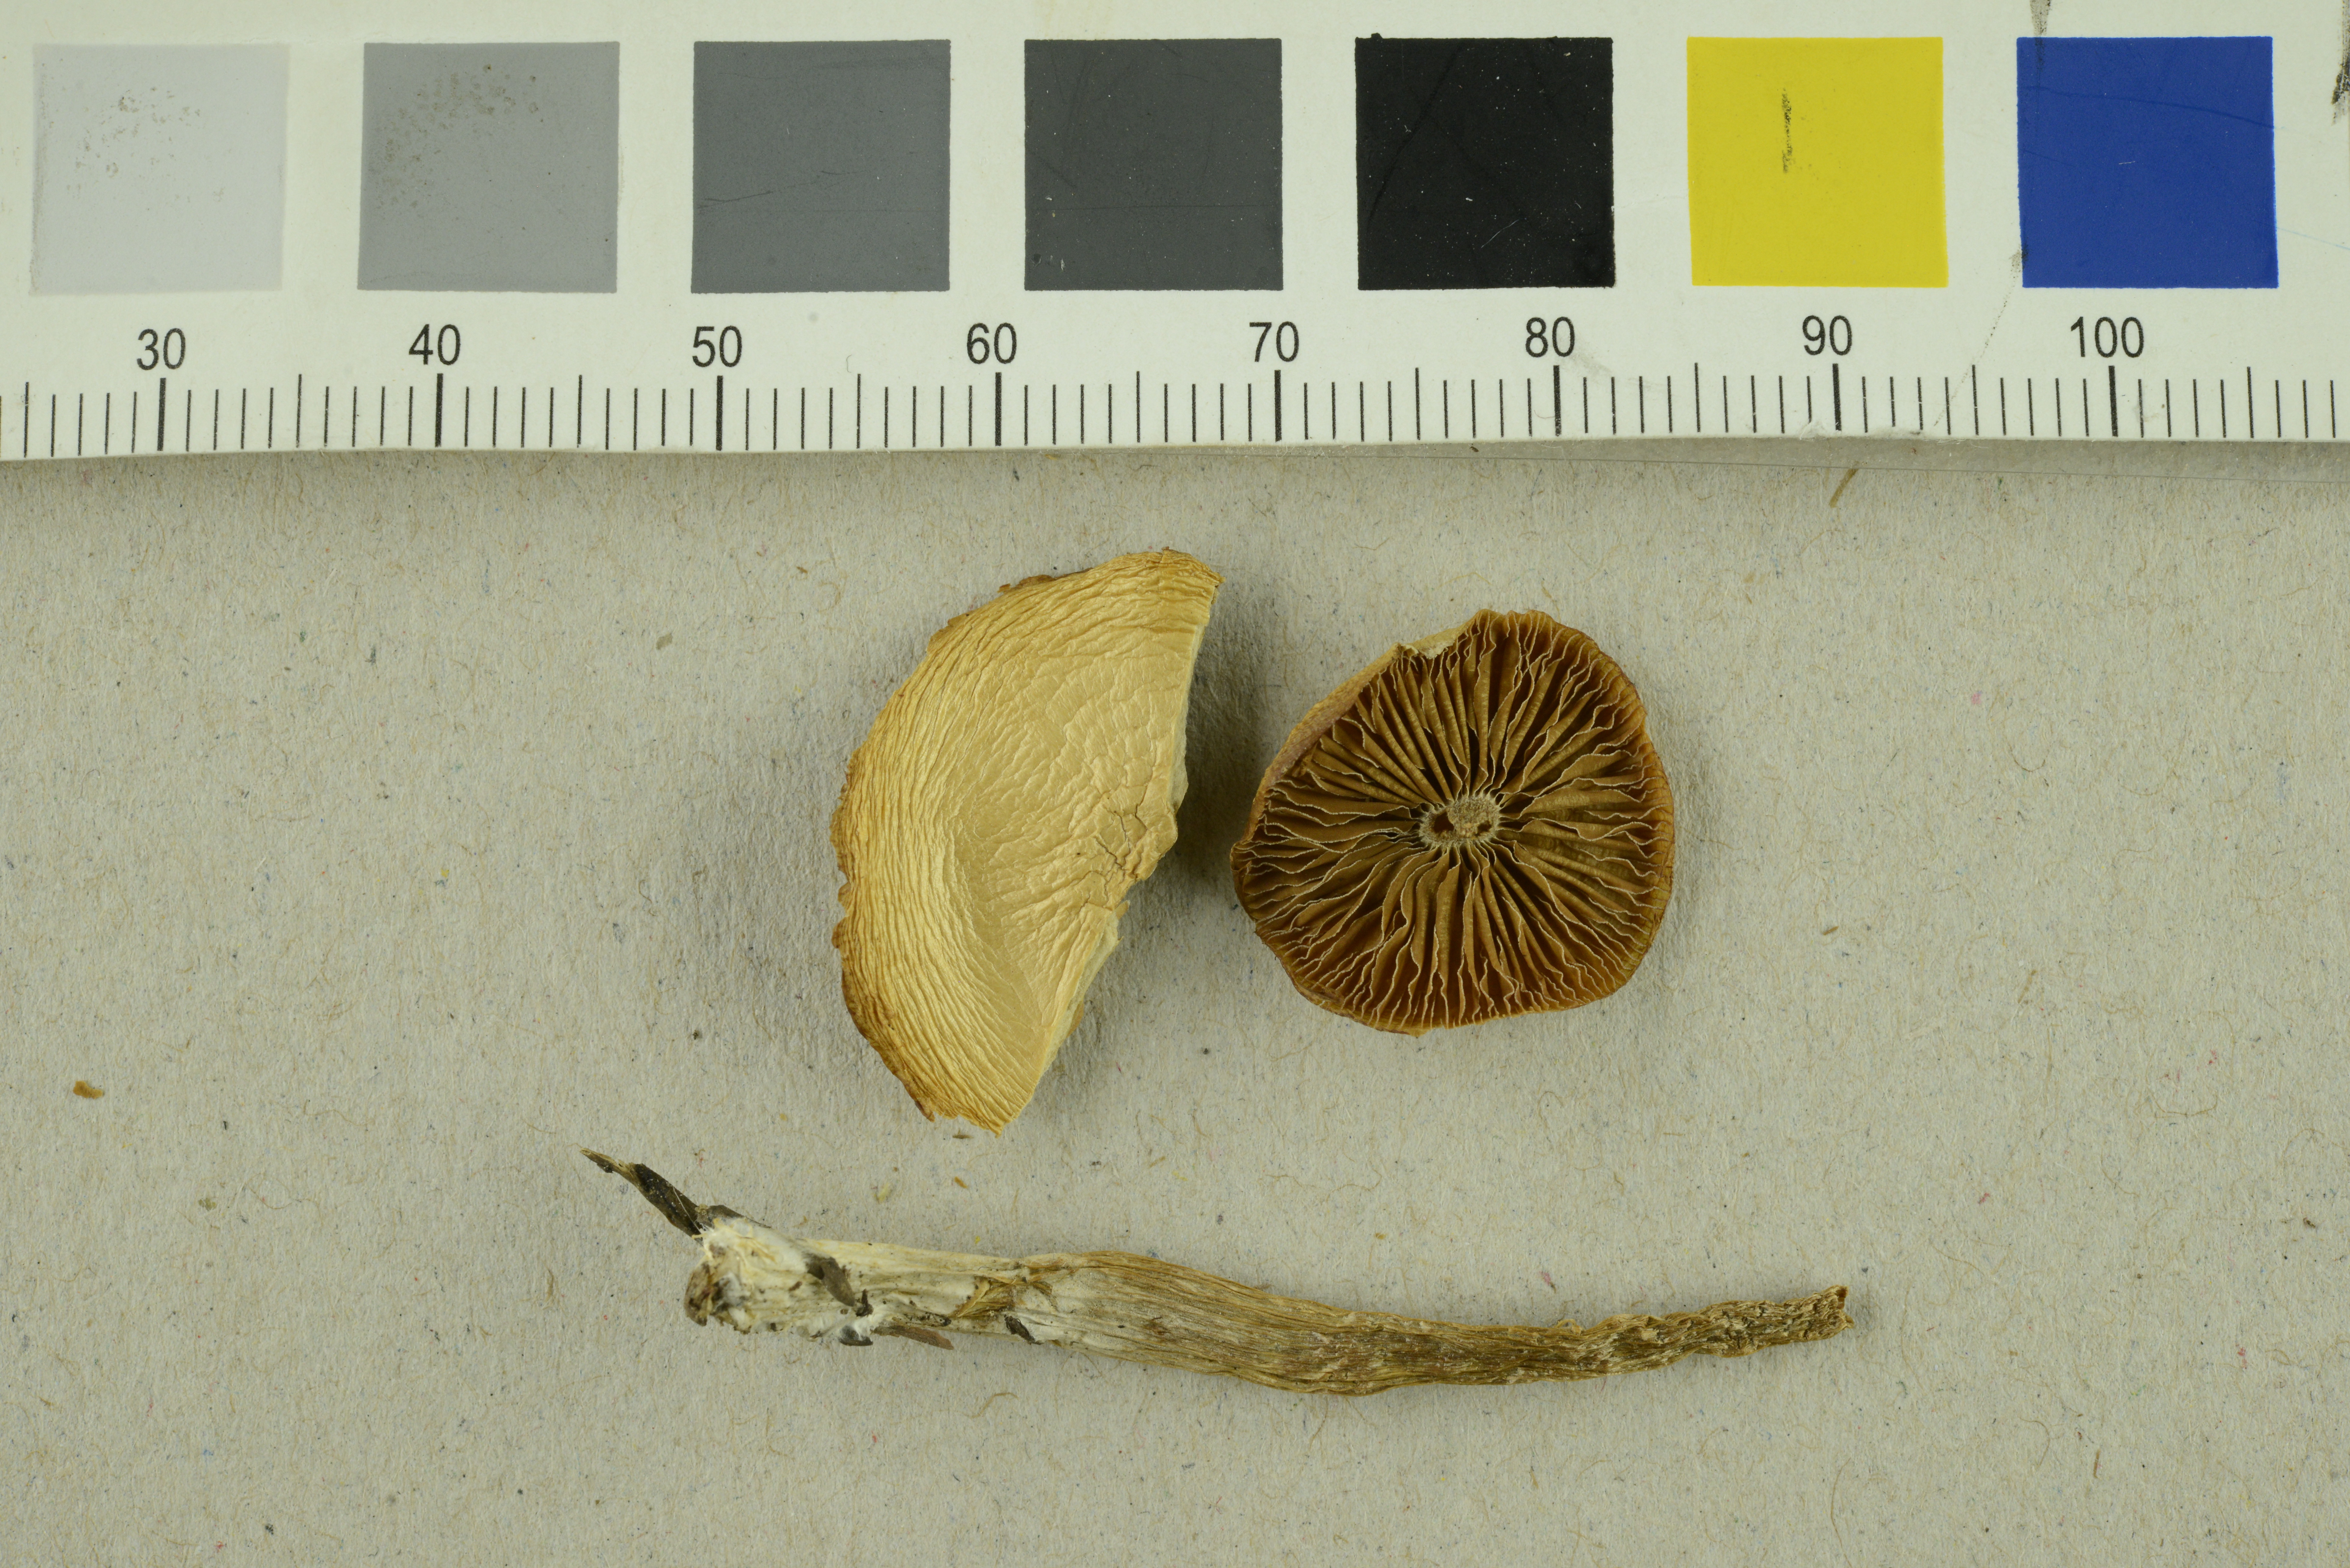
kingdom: Fungi
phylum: Basidiomycota
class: Agaricomycetes
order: Agaricales
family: Strophariaceae
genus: Pholiota
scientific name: Pholiota lignicola
